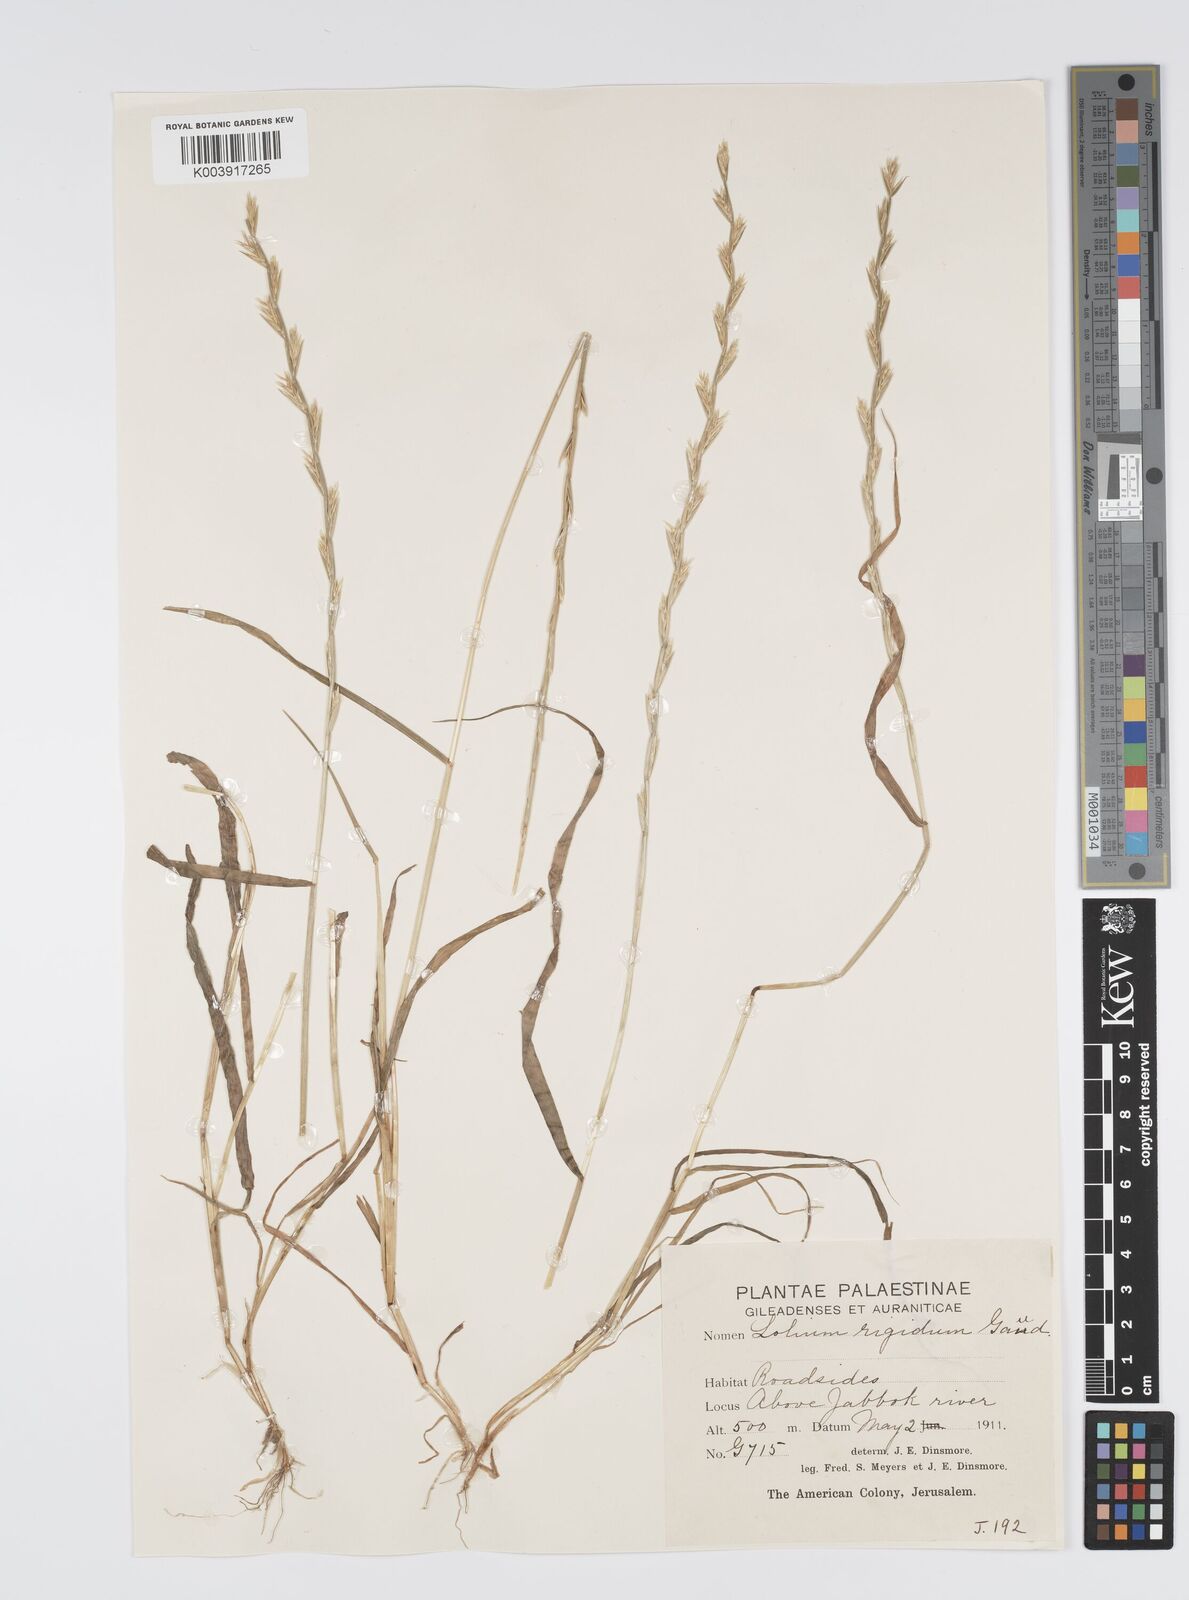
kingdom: Plantae
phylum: Tracheophyta
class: Liliopsida
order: Poales
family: Poaceae
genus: Lolium
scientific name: Lolium rigidum
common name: Wimmera ryegrass
